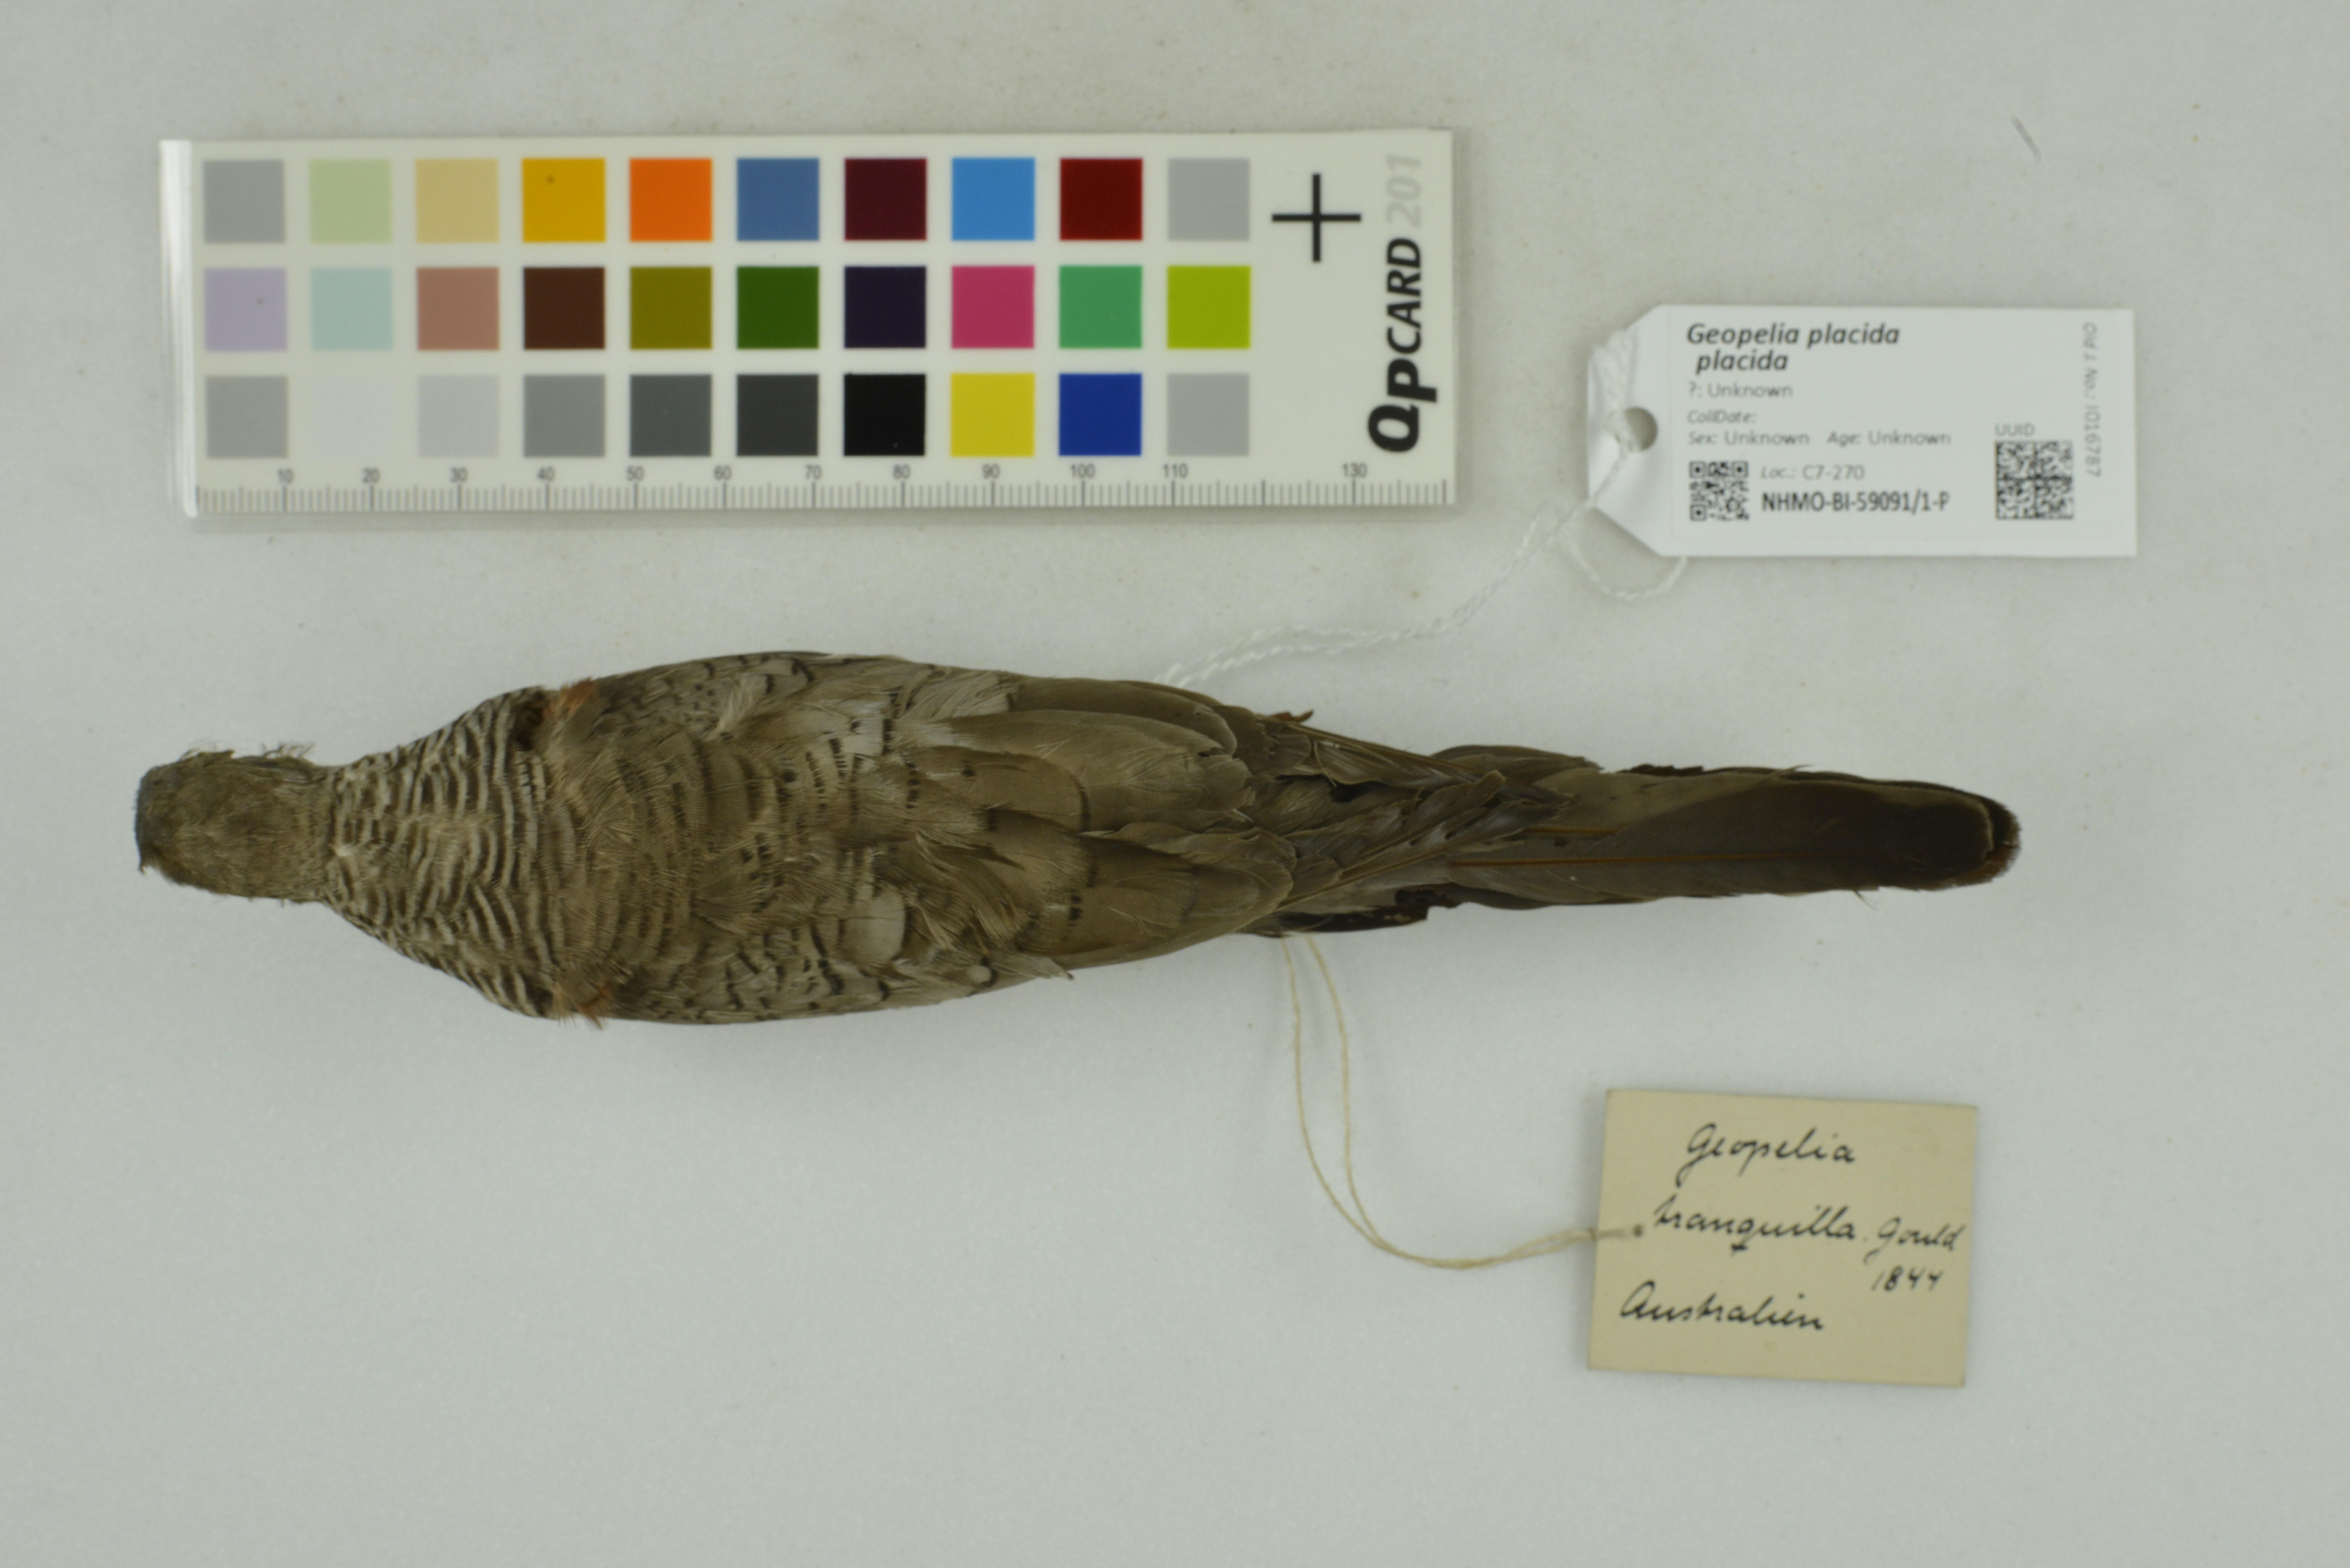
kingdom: Animalia
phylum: Chordata
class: Aves
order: Columbiformes
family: Columbidae
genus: Geopelia
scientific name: Geopelia placida
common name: Peaceful dove
